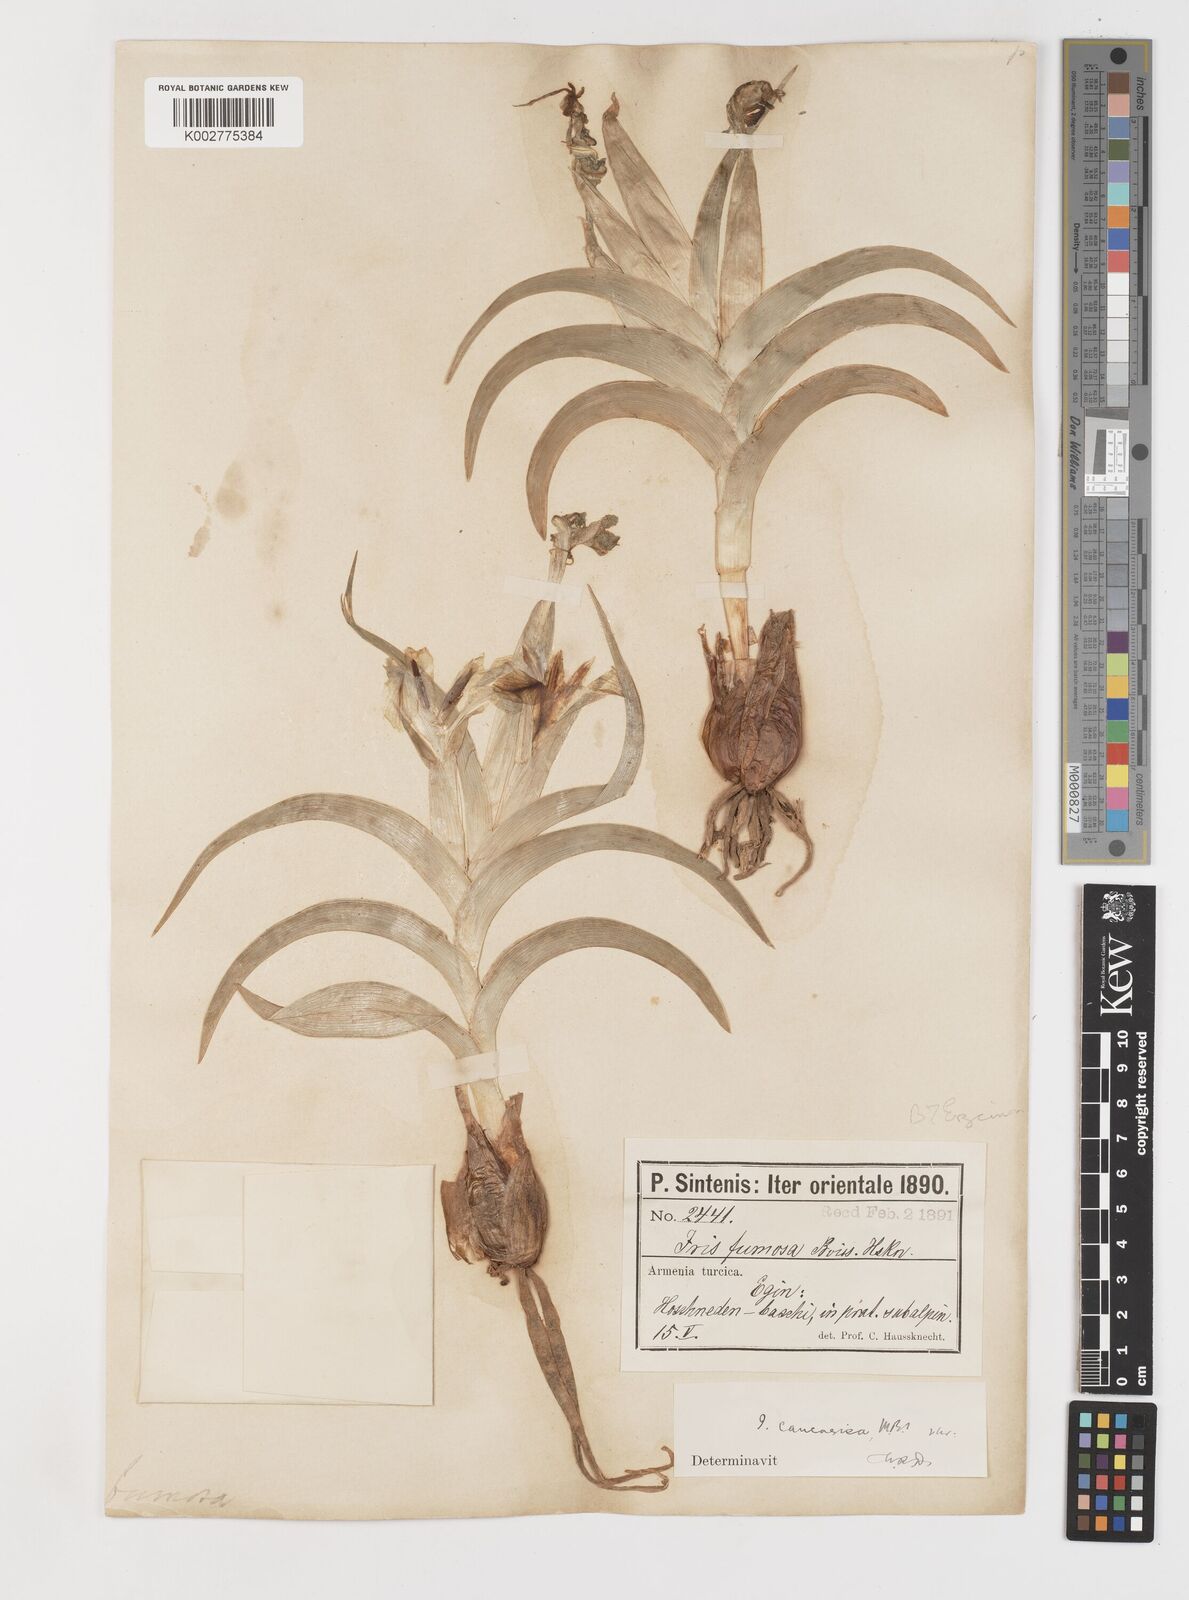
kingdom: Plantae
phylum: Tracheophyta
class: Liliopsida
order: Asparagales
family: Iridaceae
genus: Iris
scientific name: Iris caucasica
